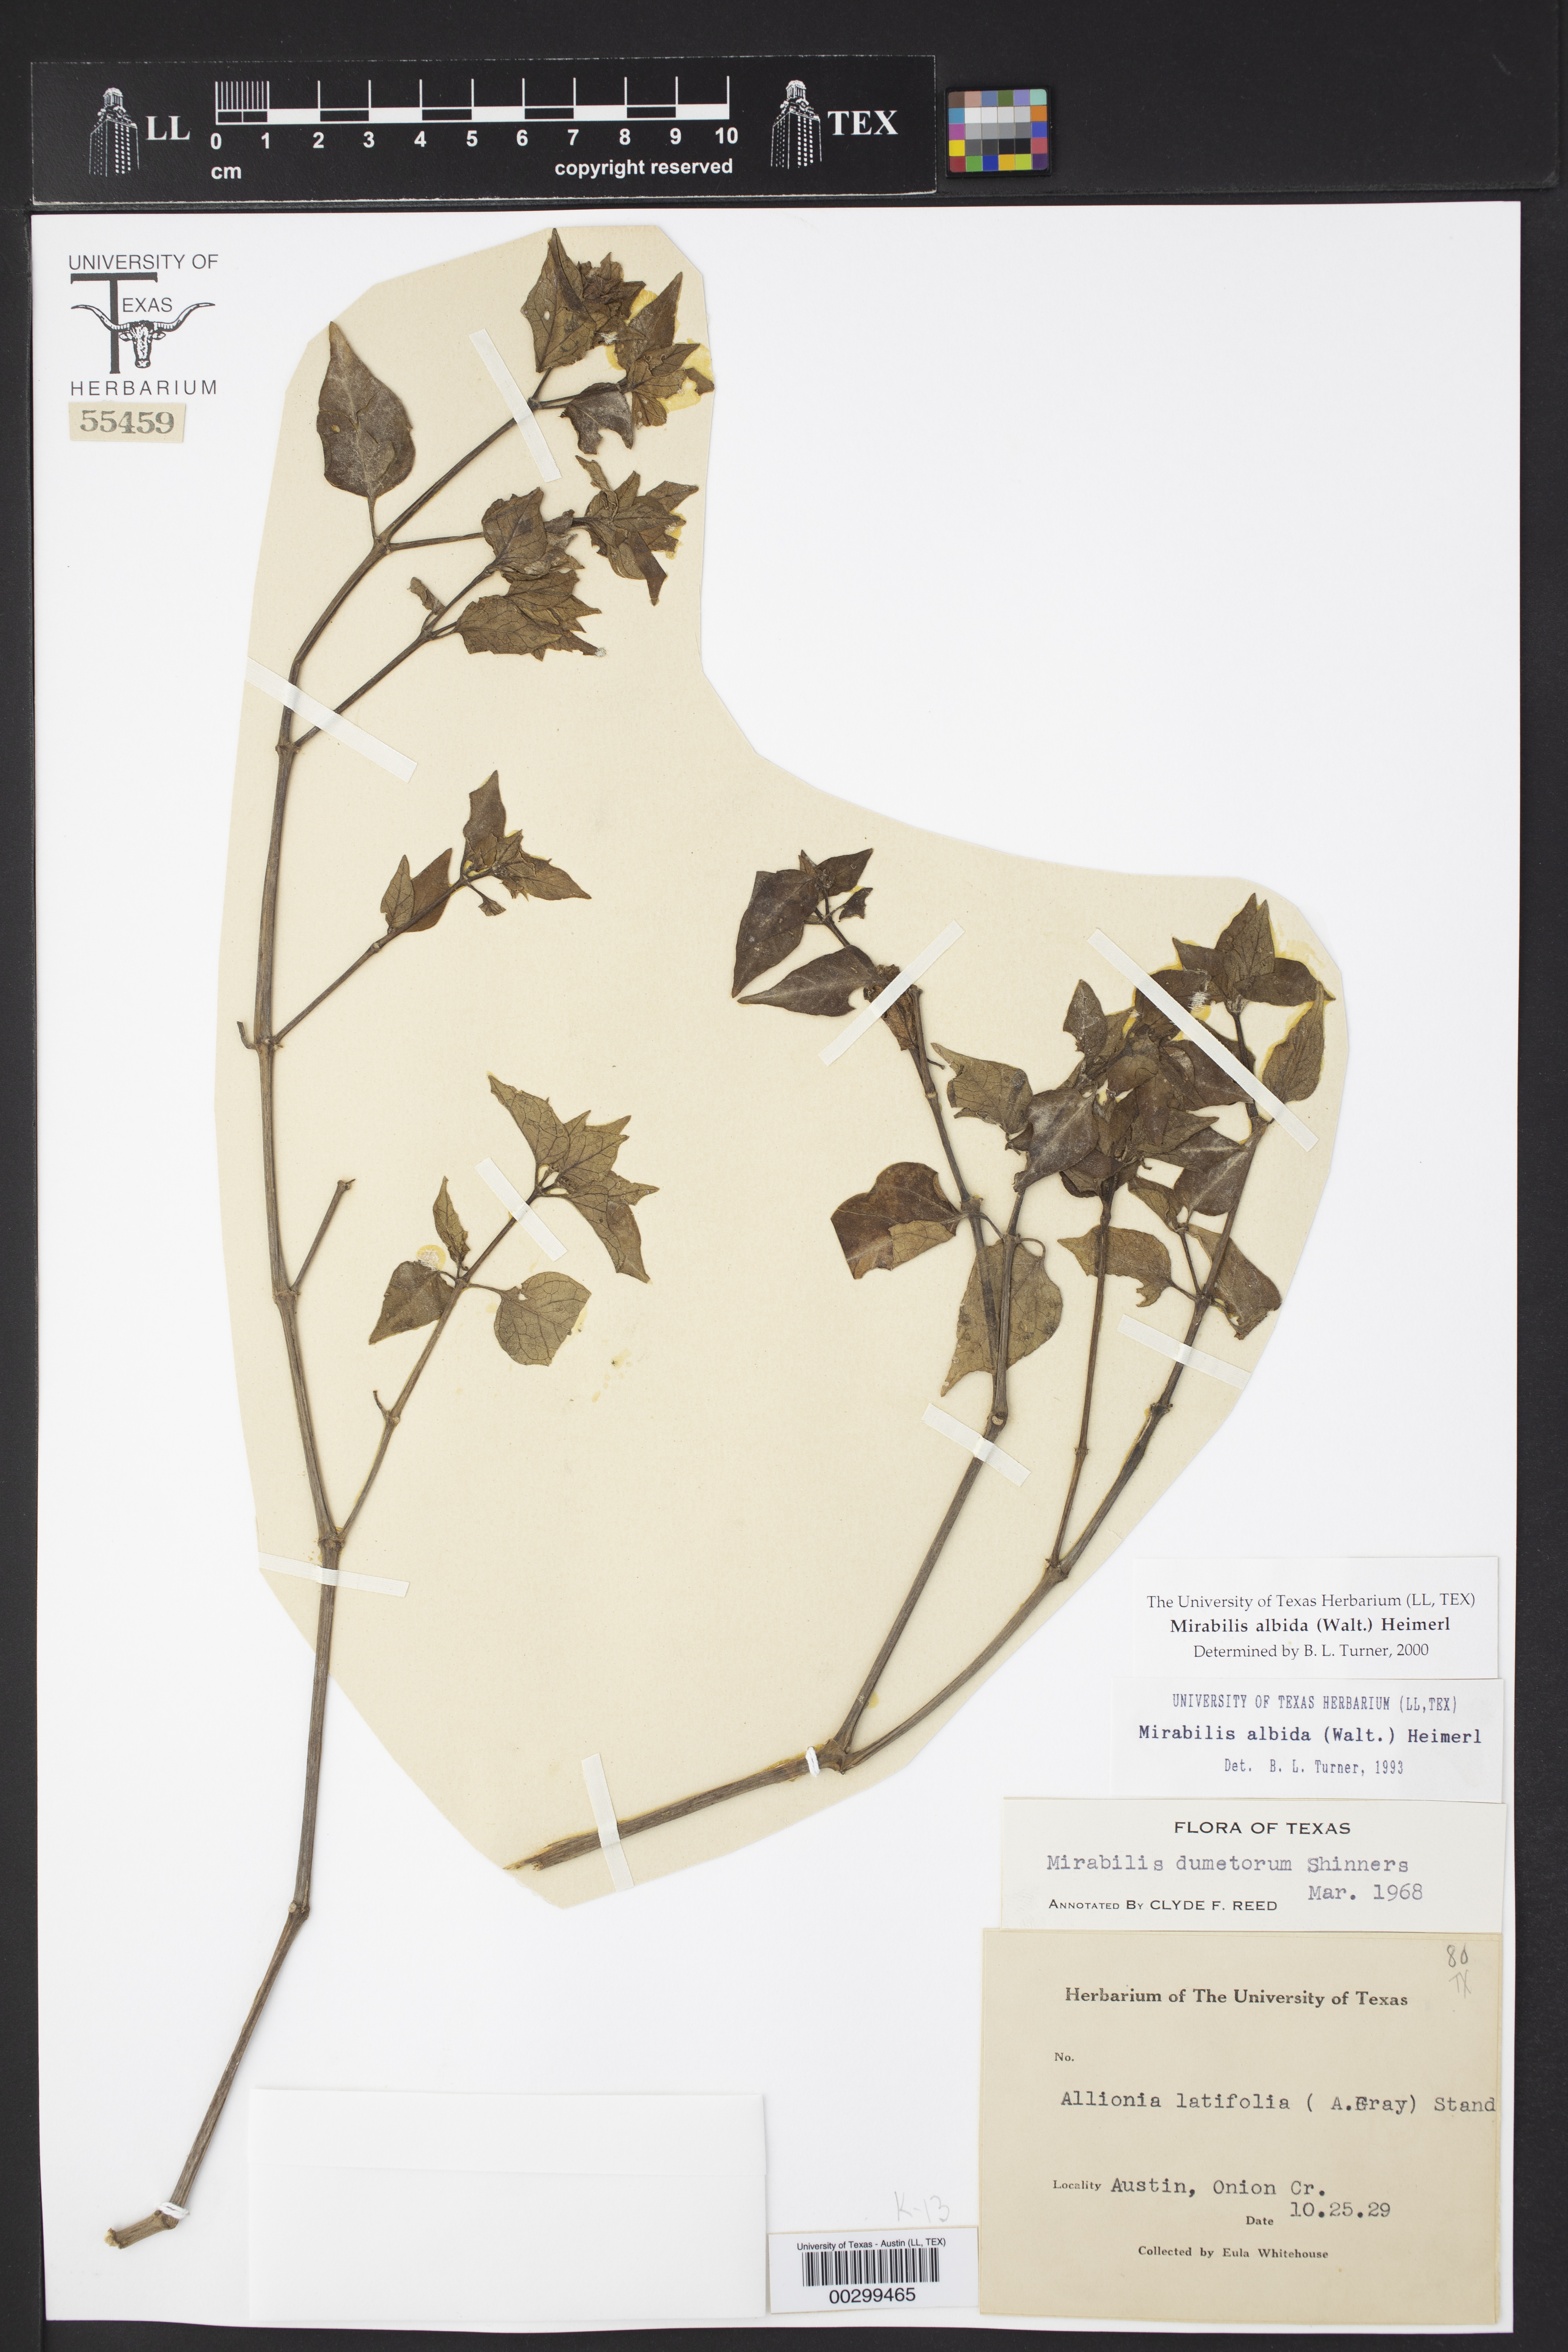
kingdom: Plantae
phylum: Tracheophyta
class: Magnoliopsida
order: Caryophyllales
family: Nyctaginaceae
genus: Mirabilis
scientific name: Mirabilis albida
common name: Hairy four-o'clock
